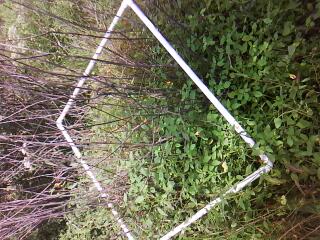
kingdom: Plantae
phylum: Tracheophyta
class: Magnoliopsida
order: Ericales
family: Balsaminaceae
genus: Impatiens
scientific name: Impatiens capensis
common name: Orange balsam
